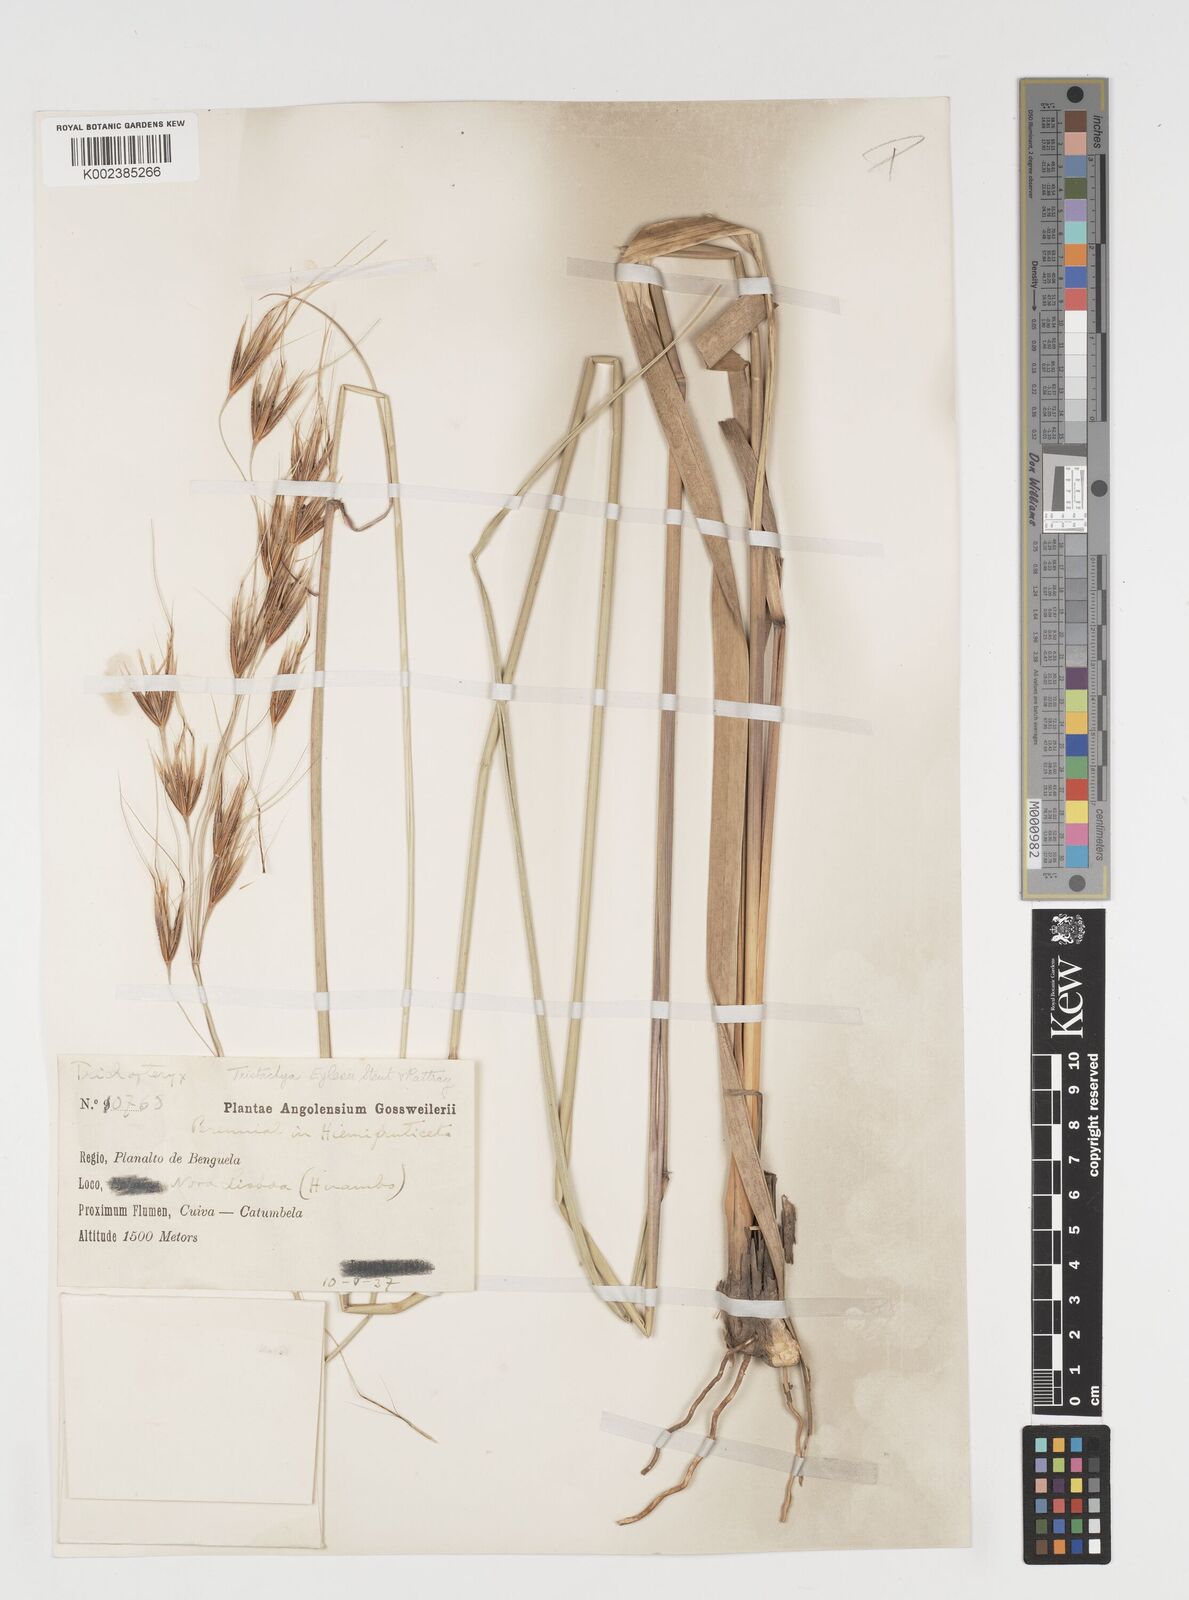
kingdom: Plantae
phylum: Tracheophyta
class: Liliopsida
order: Poales
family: Poaceae
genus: Tristachya
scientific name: Tristachya nodiglumis
